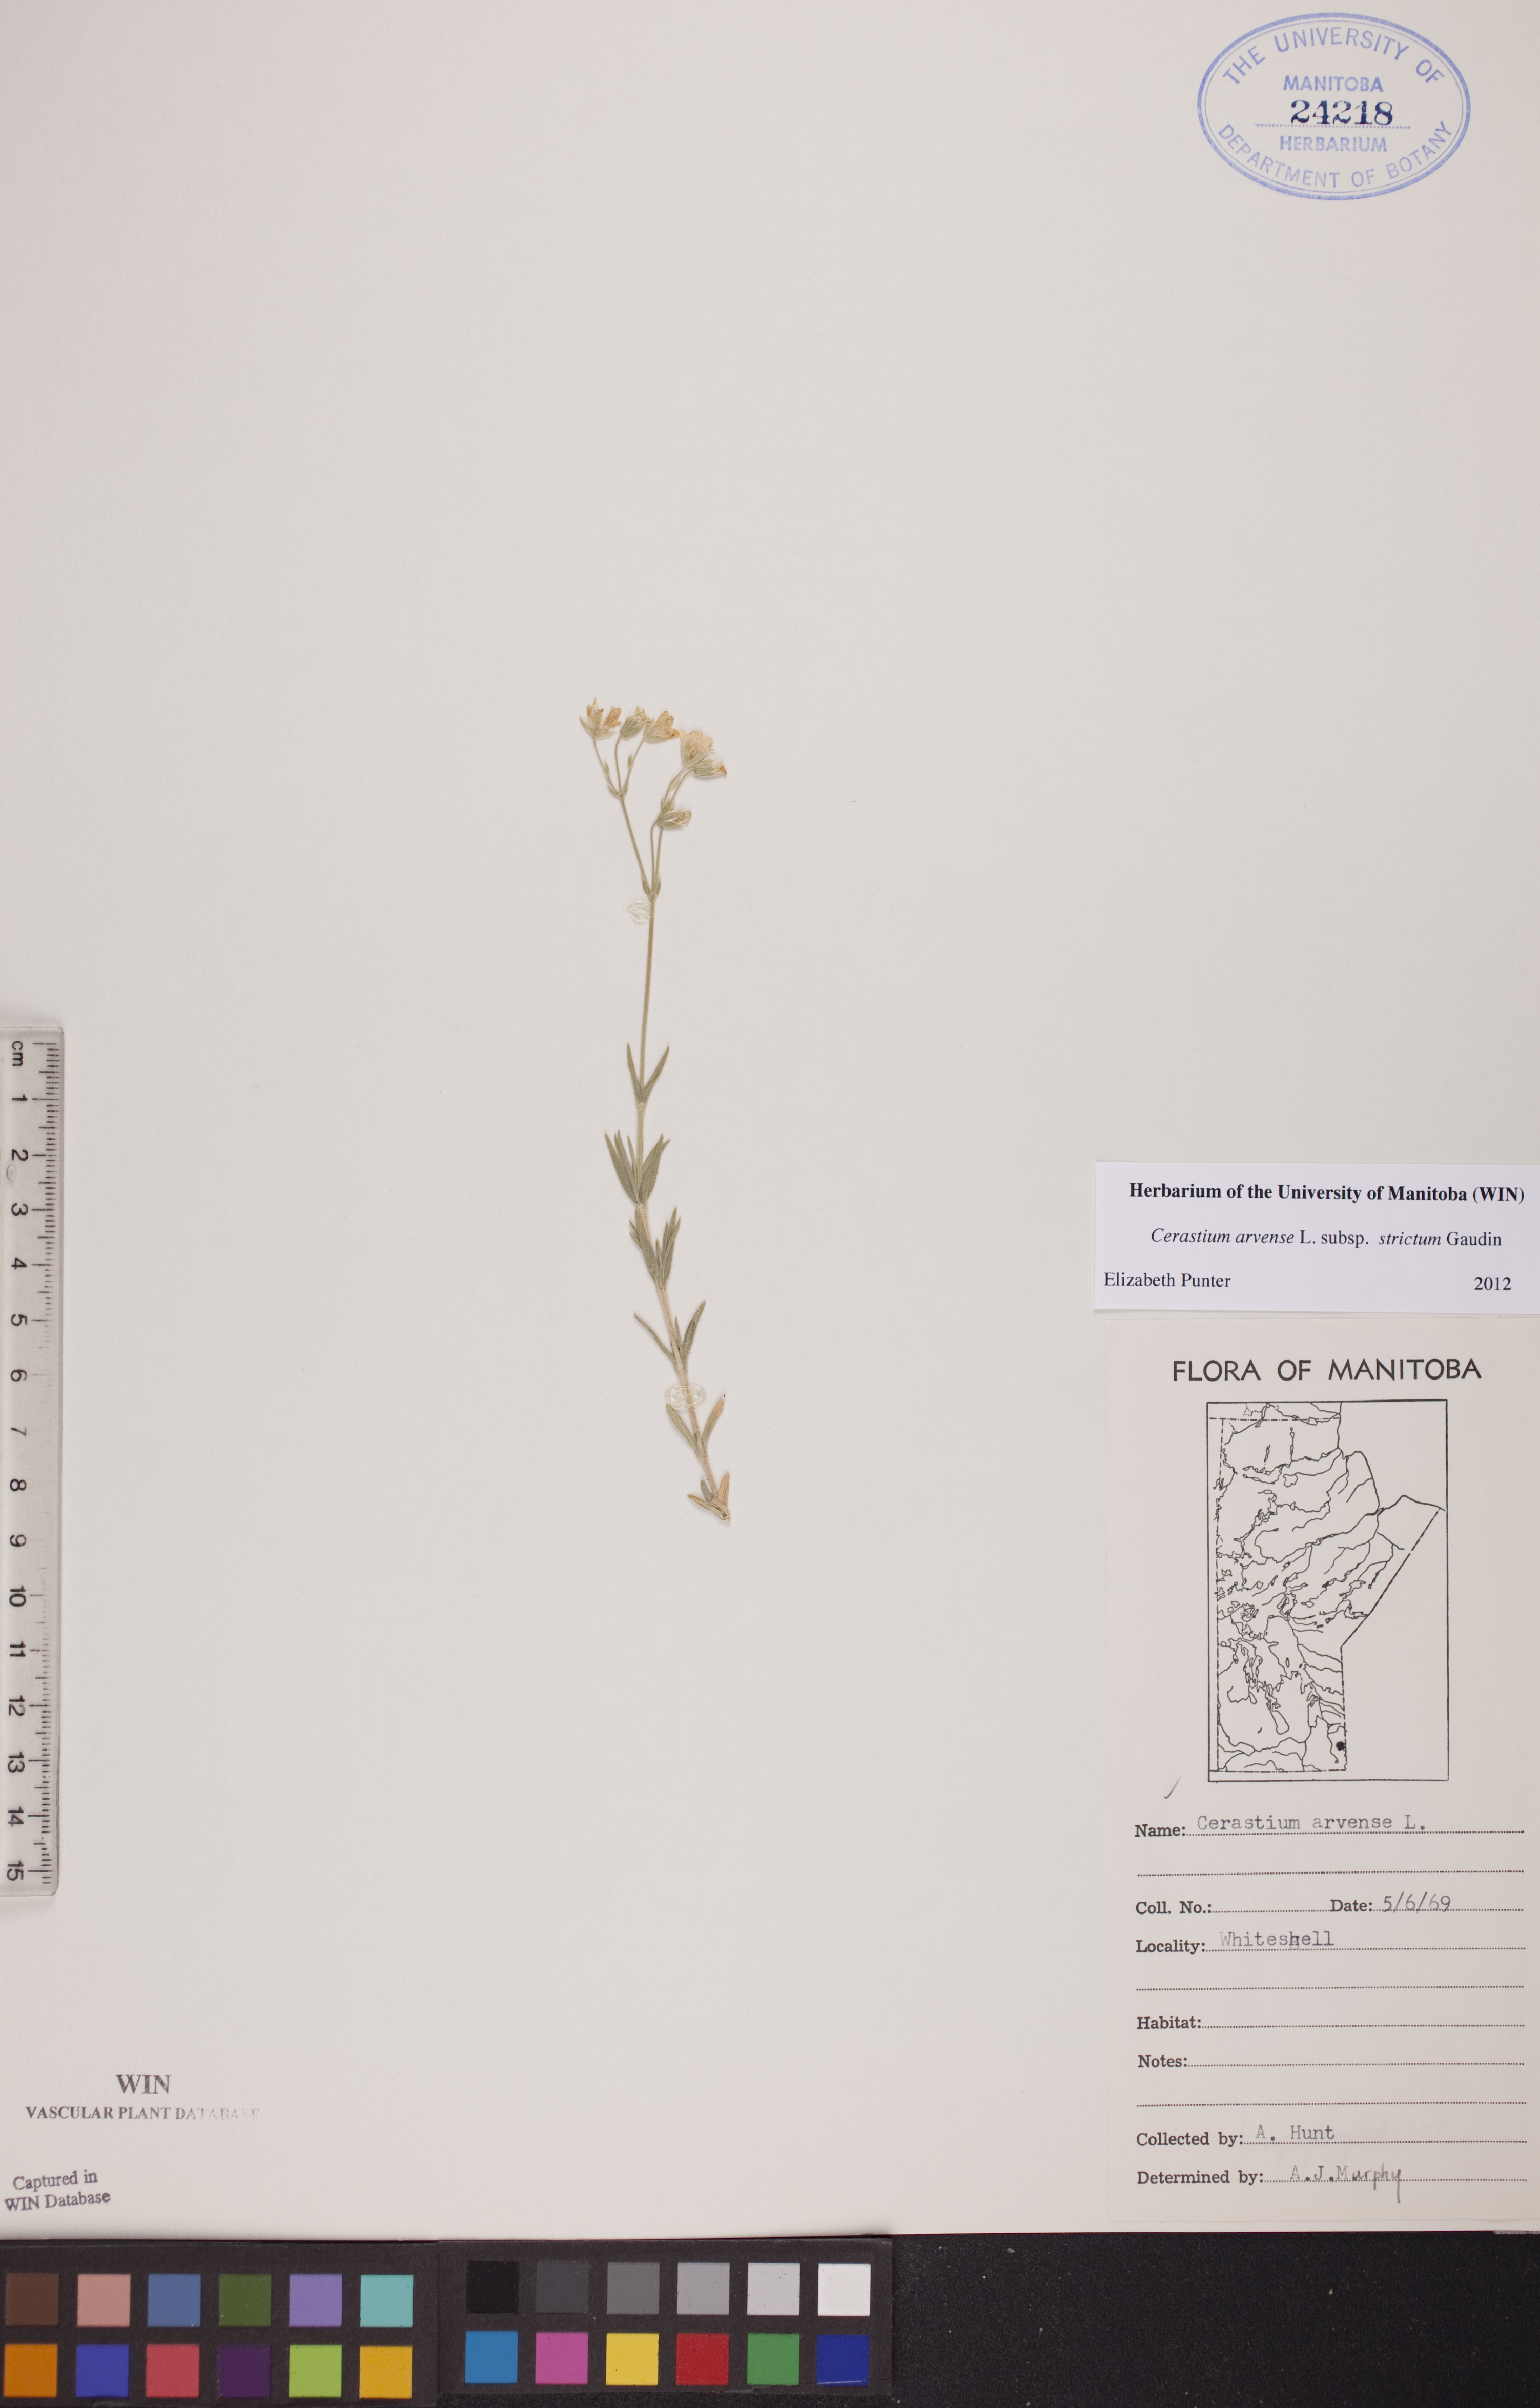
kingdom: Plantae
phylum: Tracheophyta
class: Magnoliopsida
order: Caryophyllales
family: Caryophyllaceae
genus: Cerastium
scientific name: Cerastium elongatum
